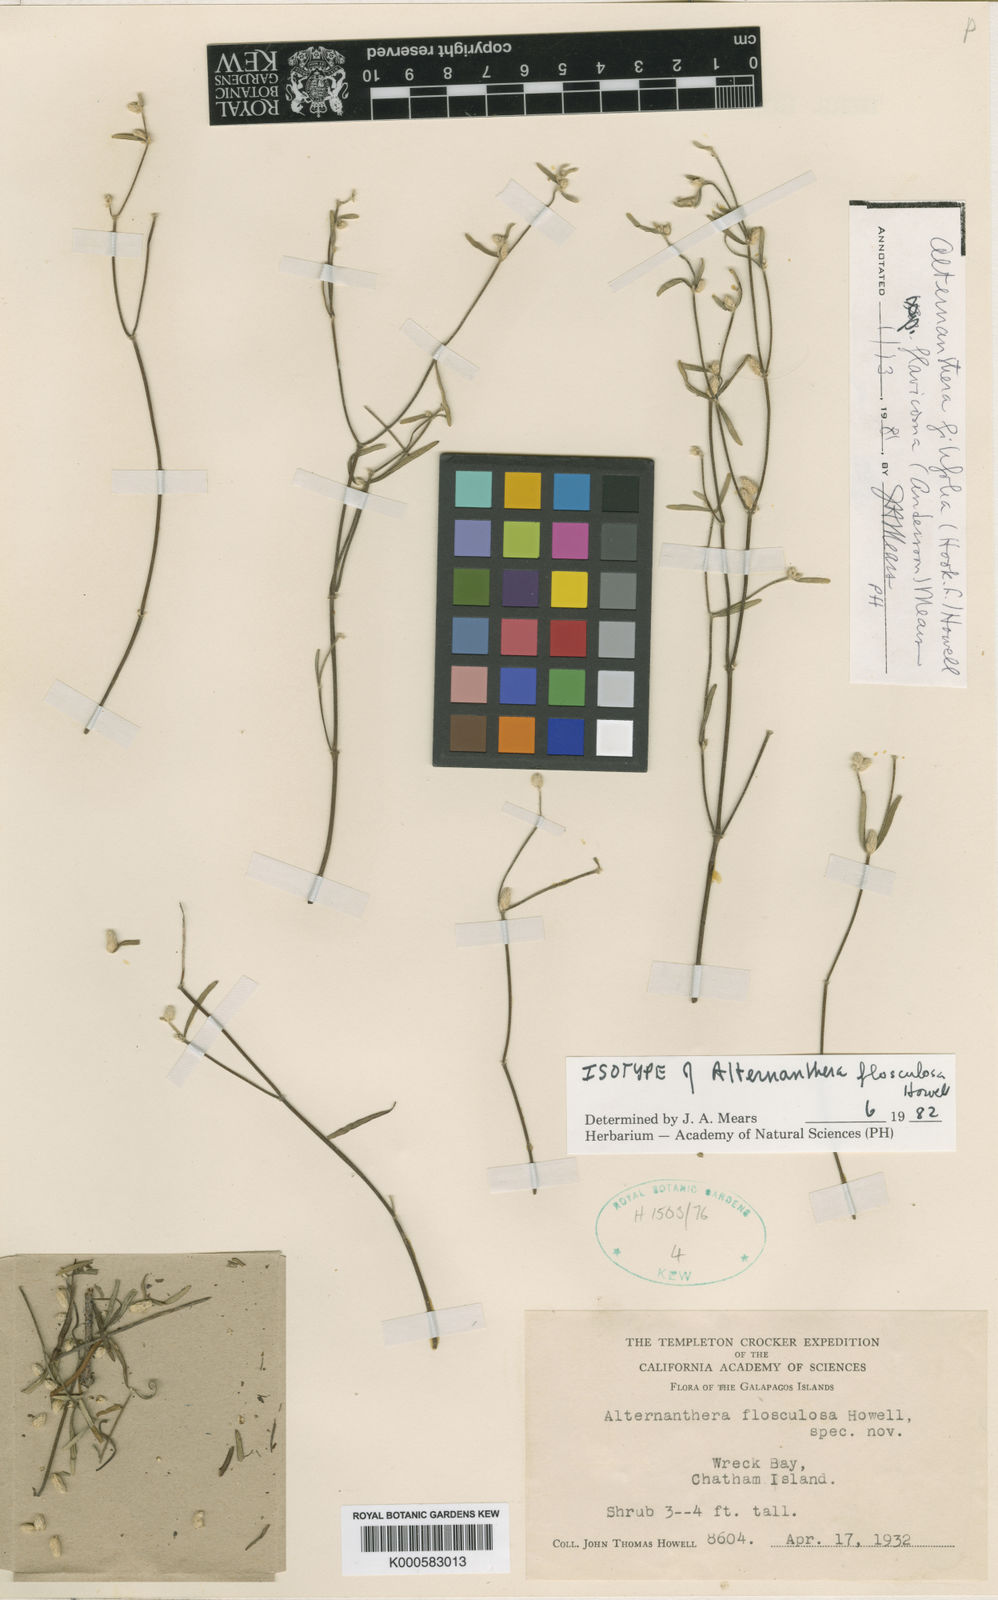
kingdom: Plantae
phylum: Tracheophyta
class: Magnoliopsida
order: Caryophyllales
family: Amaranthaceae
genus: Alternanthera
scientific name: Alternanthera flosculosa
